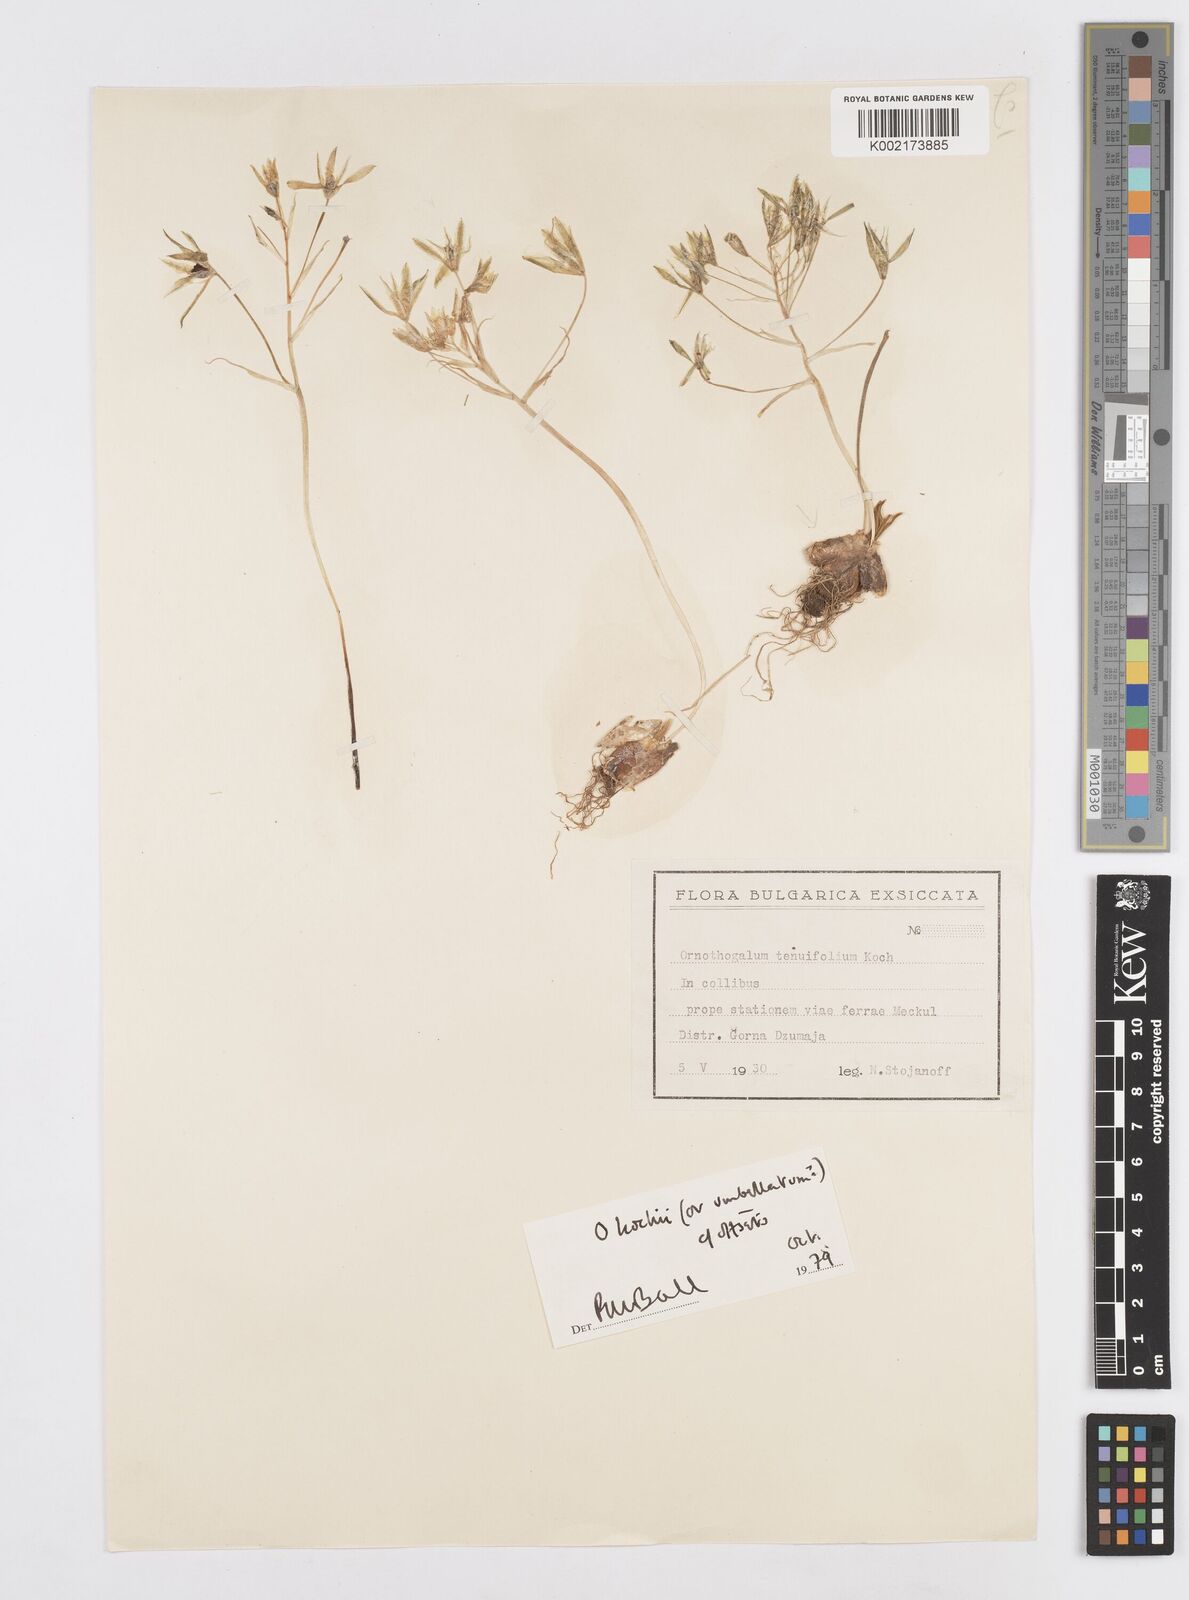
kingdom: Plantae
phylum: Tracheophyta
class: Liliopsida
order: Asparagales
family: Asparagaceae
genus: Ornithogalum
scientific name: Ornithogalum orthophyllum
